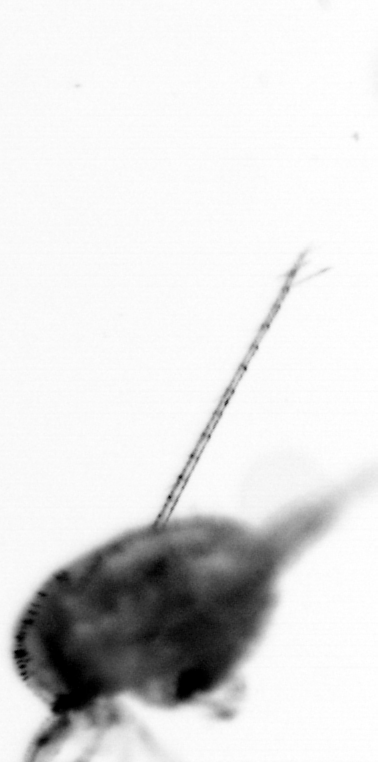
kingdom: Animalia
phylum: Arthropoda
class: Copepoda
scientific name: Copepoda
